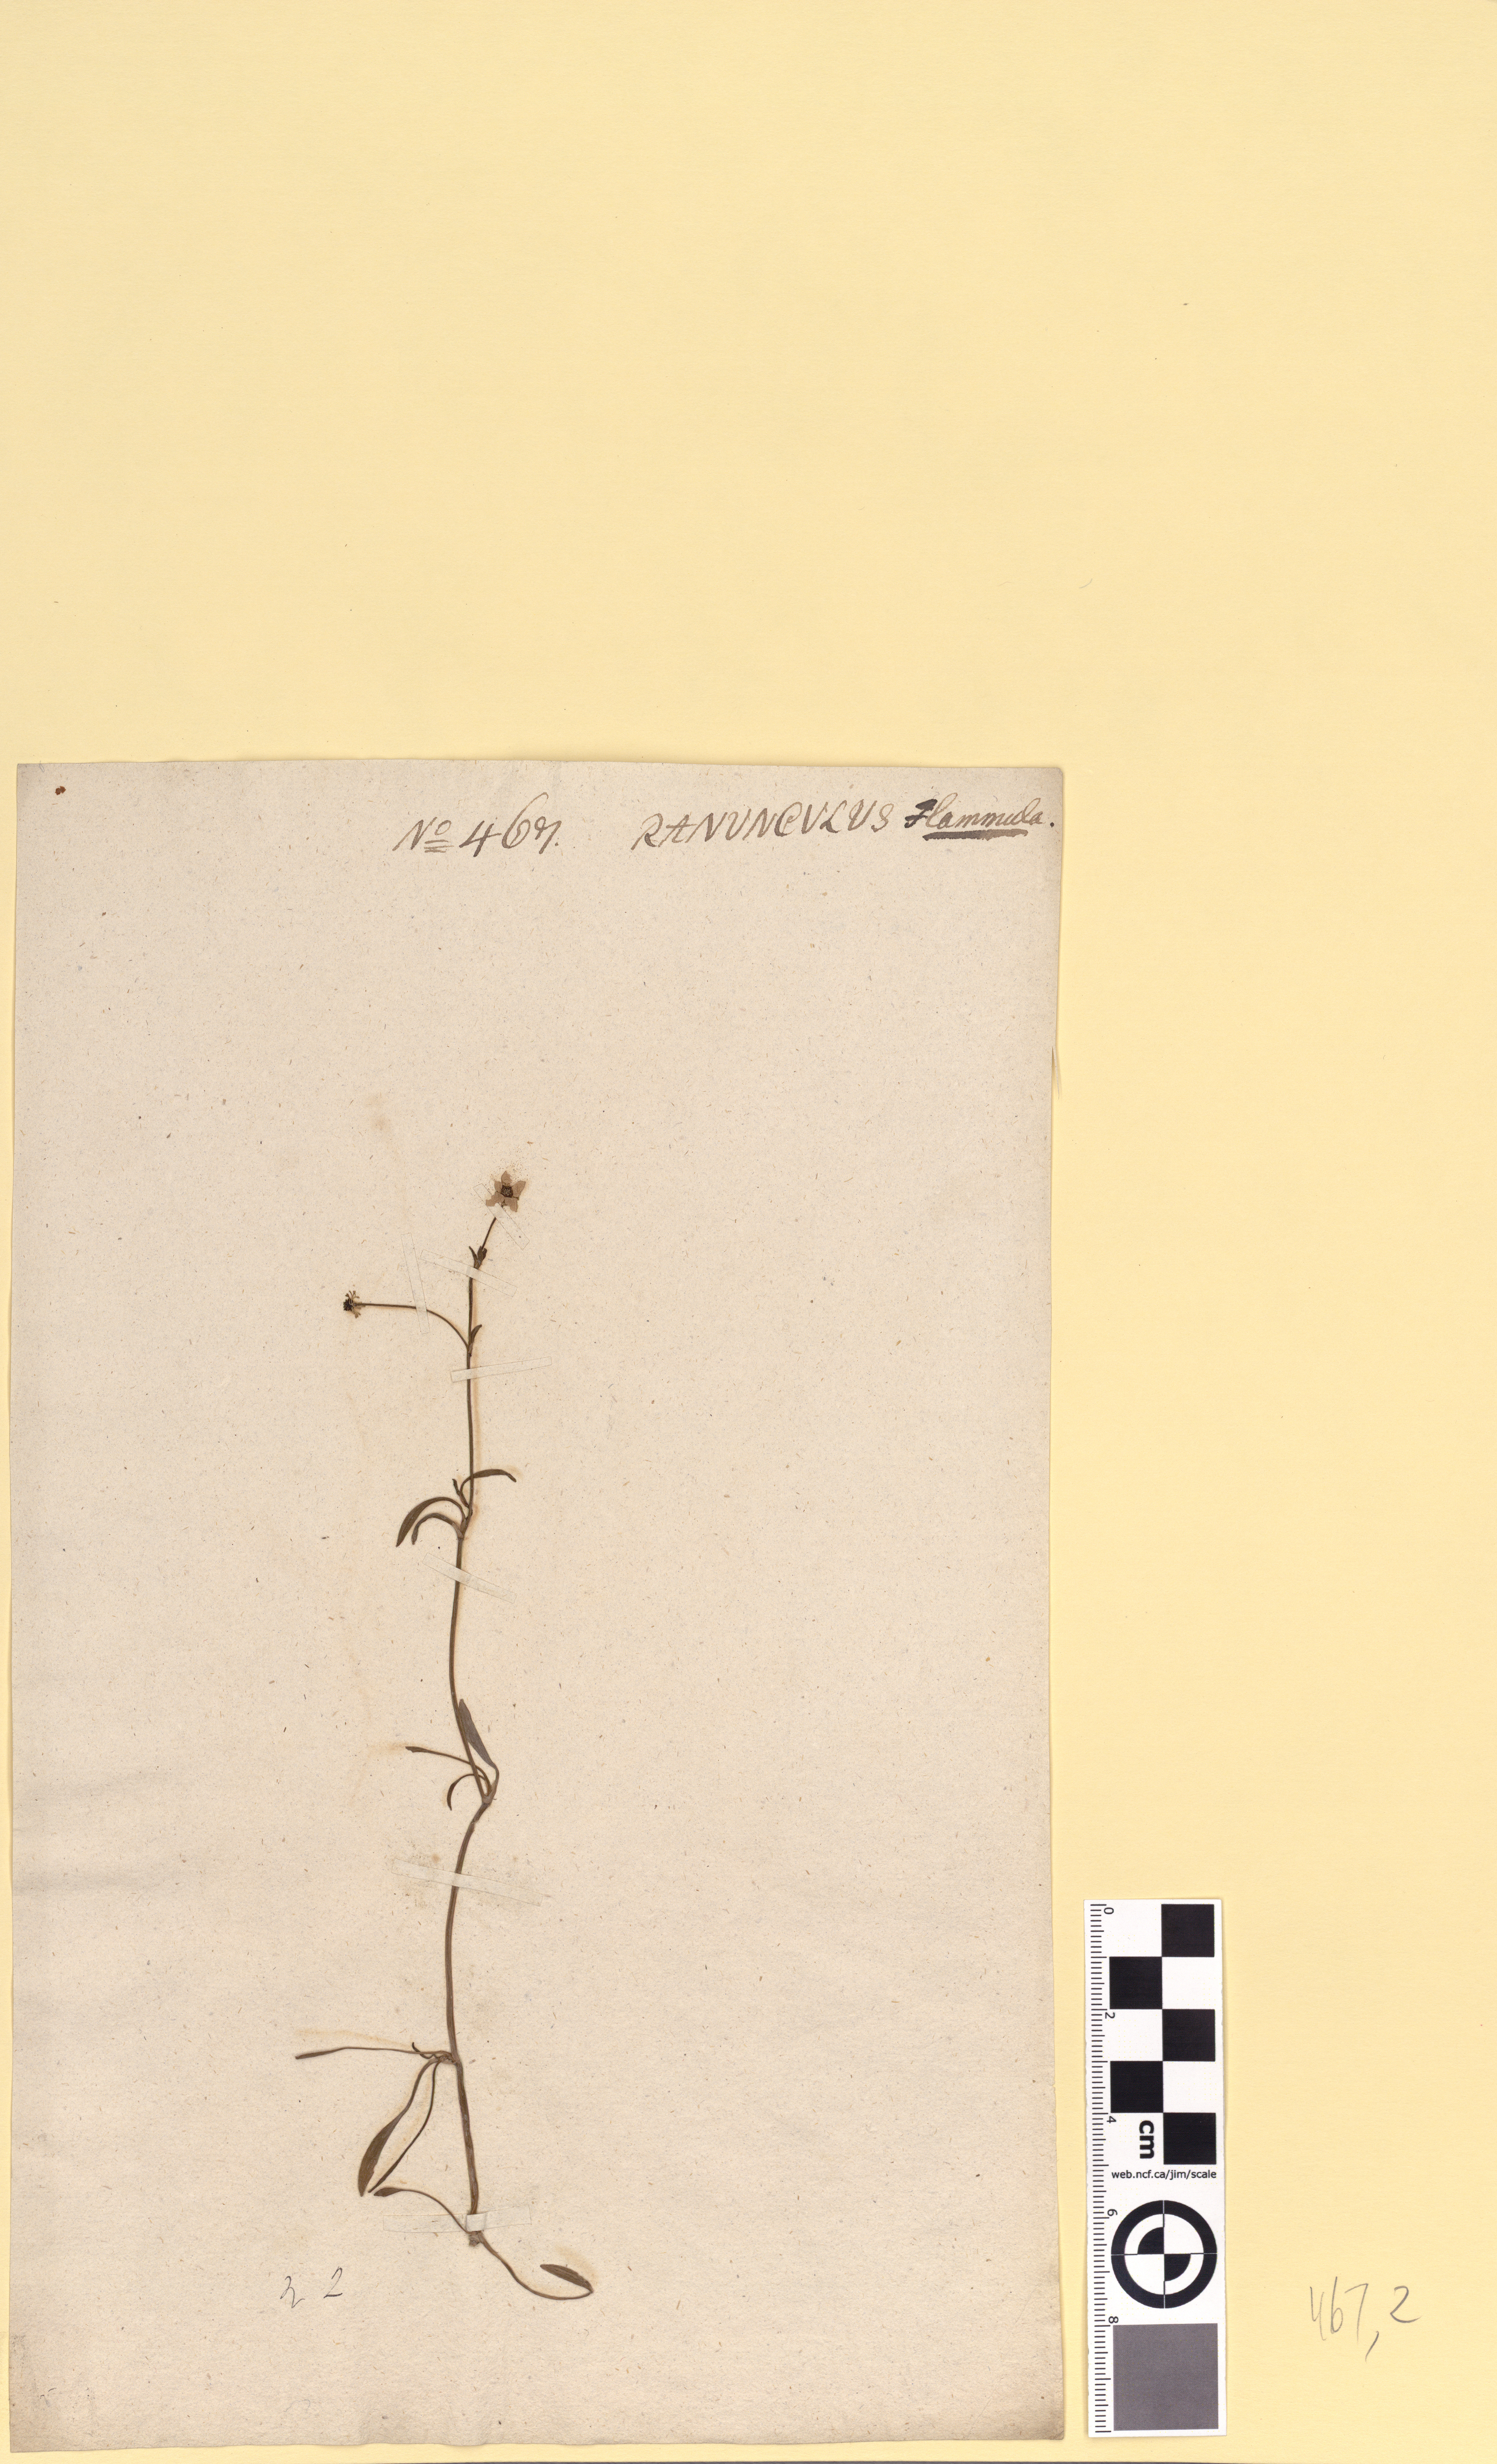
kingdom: Plantae
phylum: Tracheophyta
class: Magnoliopsida
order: Ranunculales
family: Ranunculaceae
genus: Ranunculus
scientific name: Ranunculus flammula
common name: Lesser spearwort
